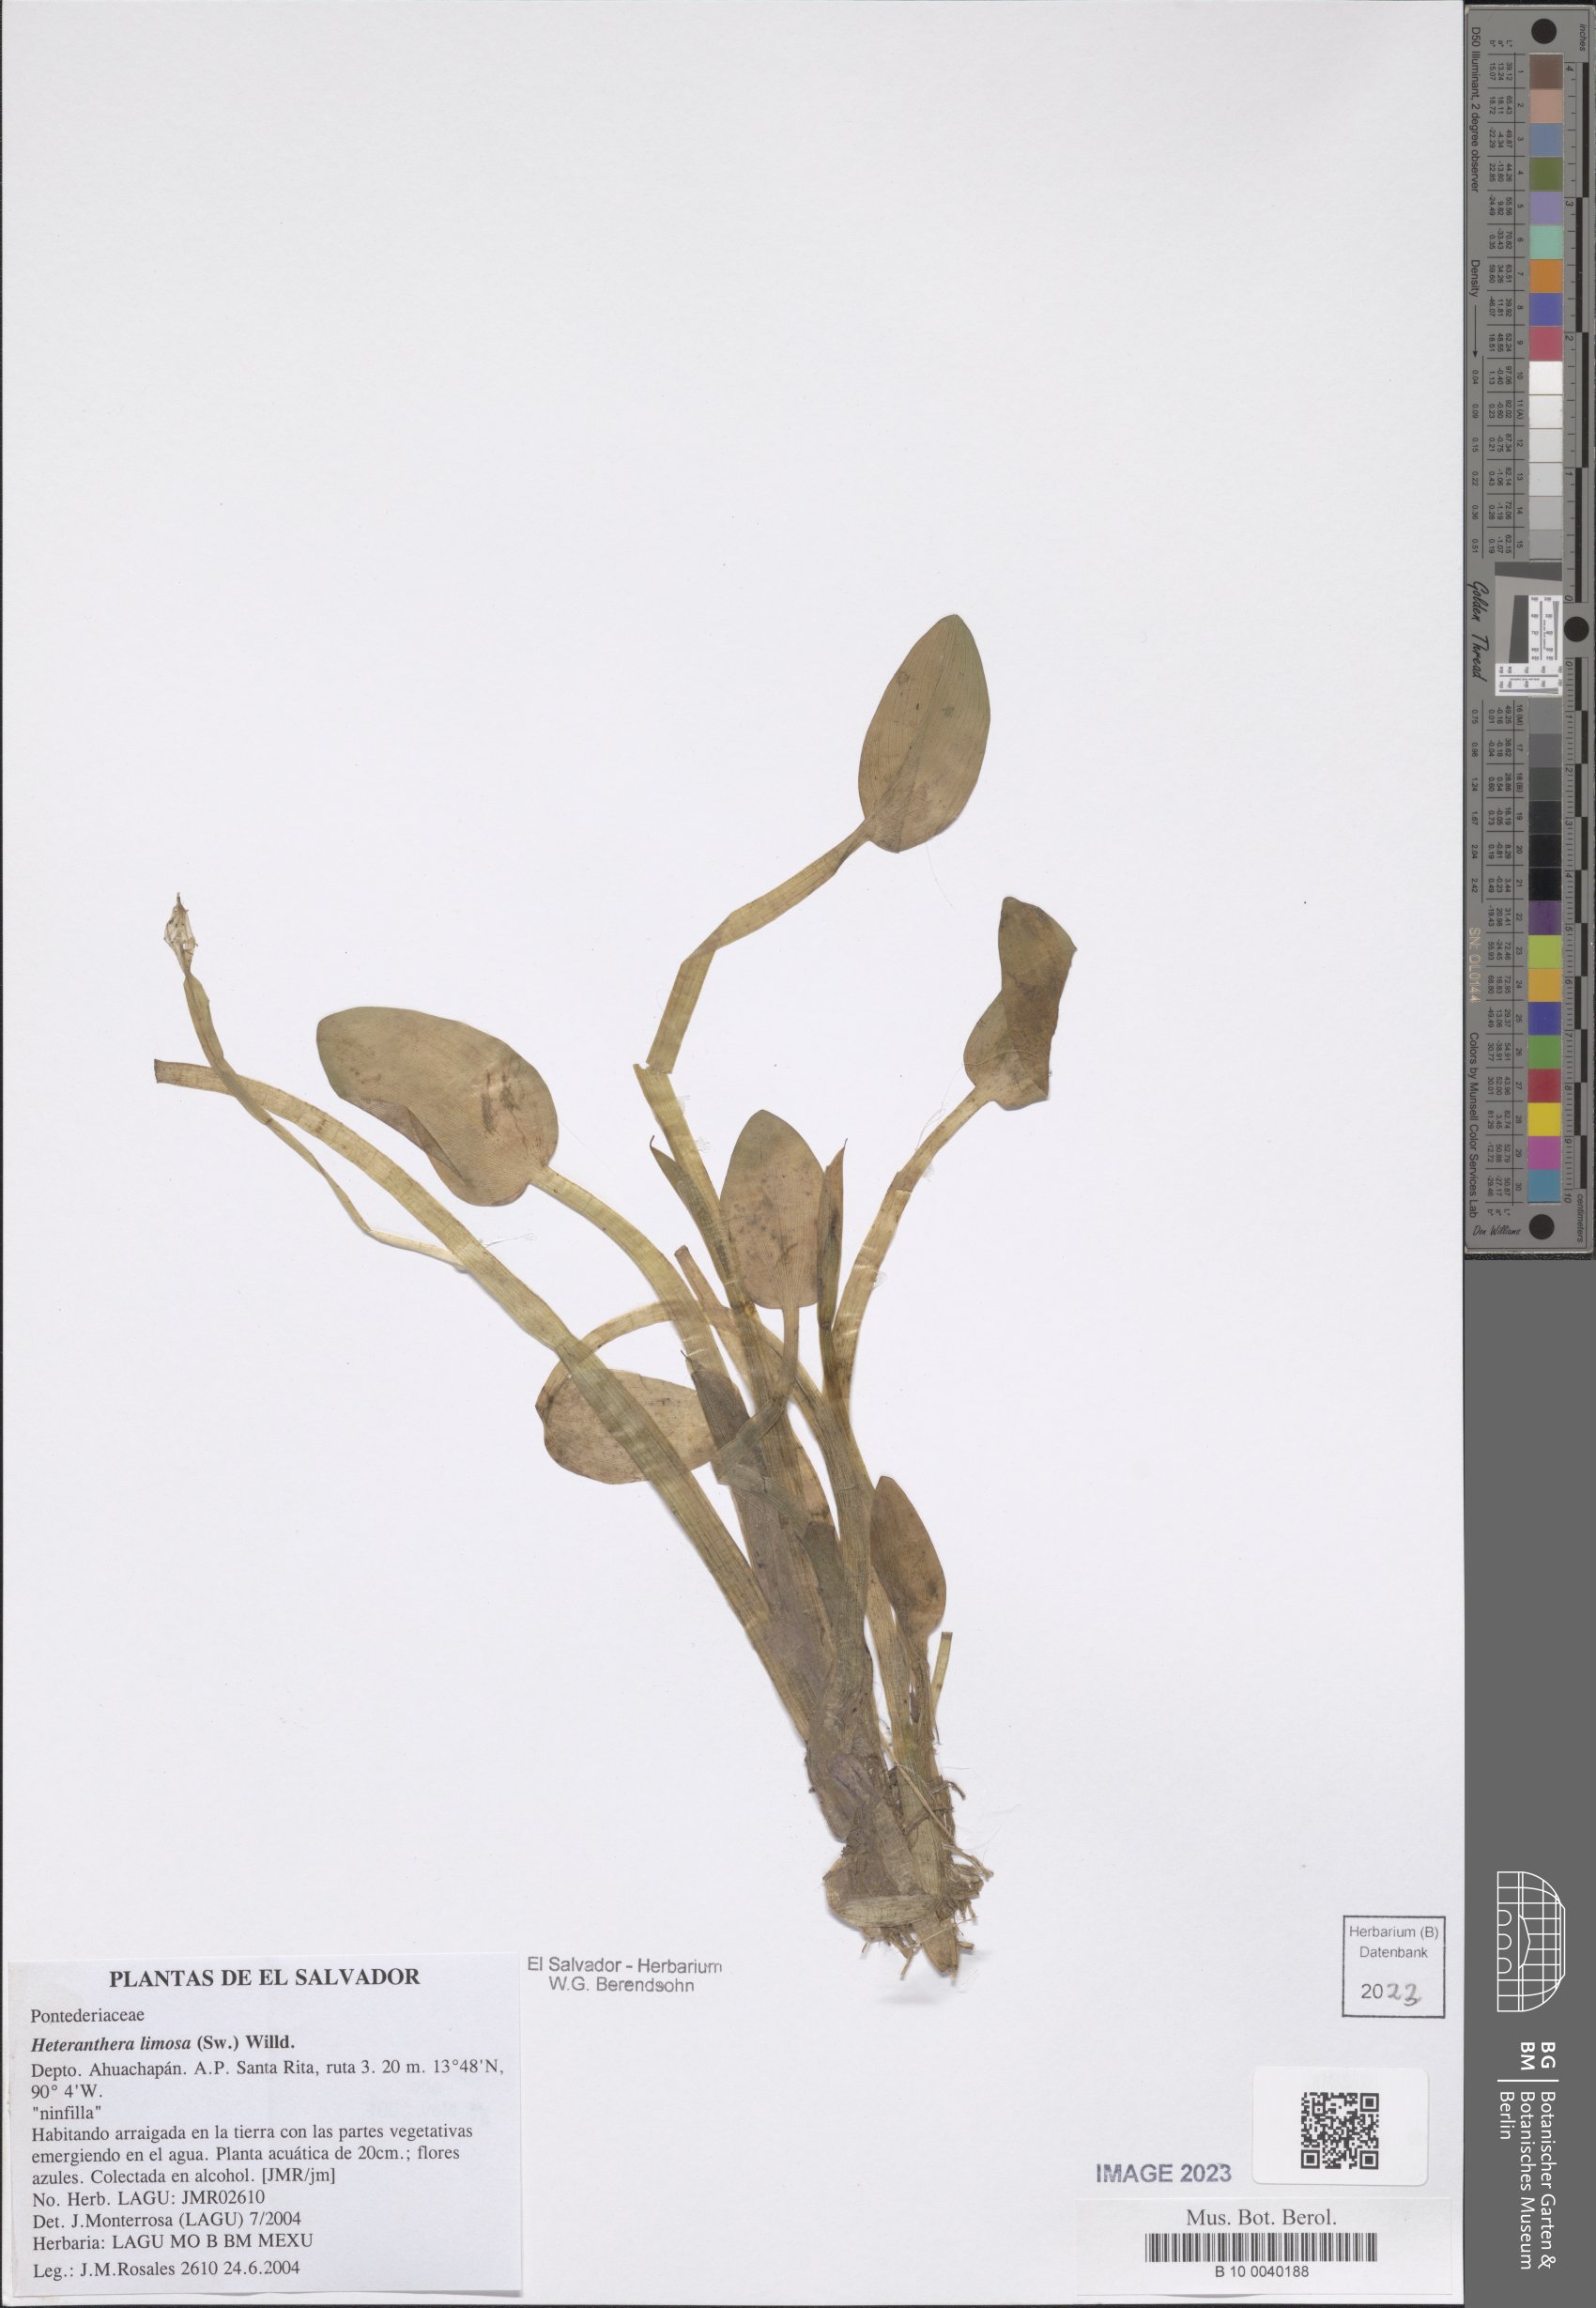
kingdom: Plantae
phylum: Tracheophyta
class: Liliopsida
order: Commelinales
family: Pontederiaceae
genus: Heteranthera
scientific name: Heteranthera limosa
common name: Blue mud-plantain
